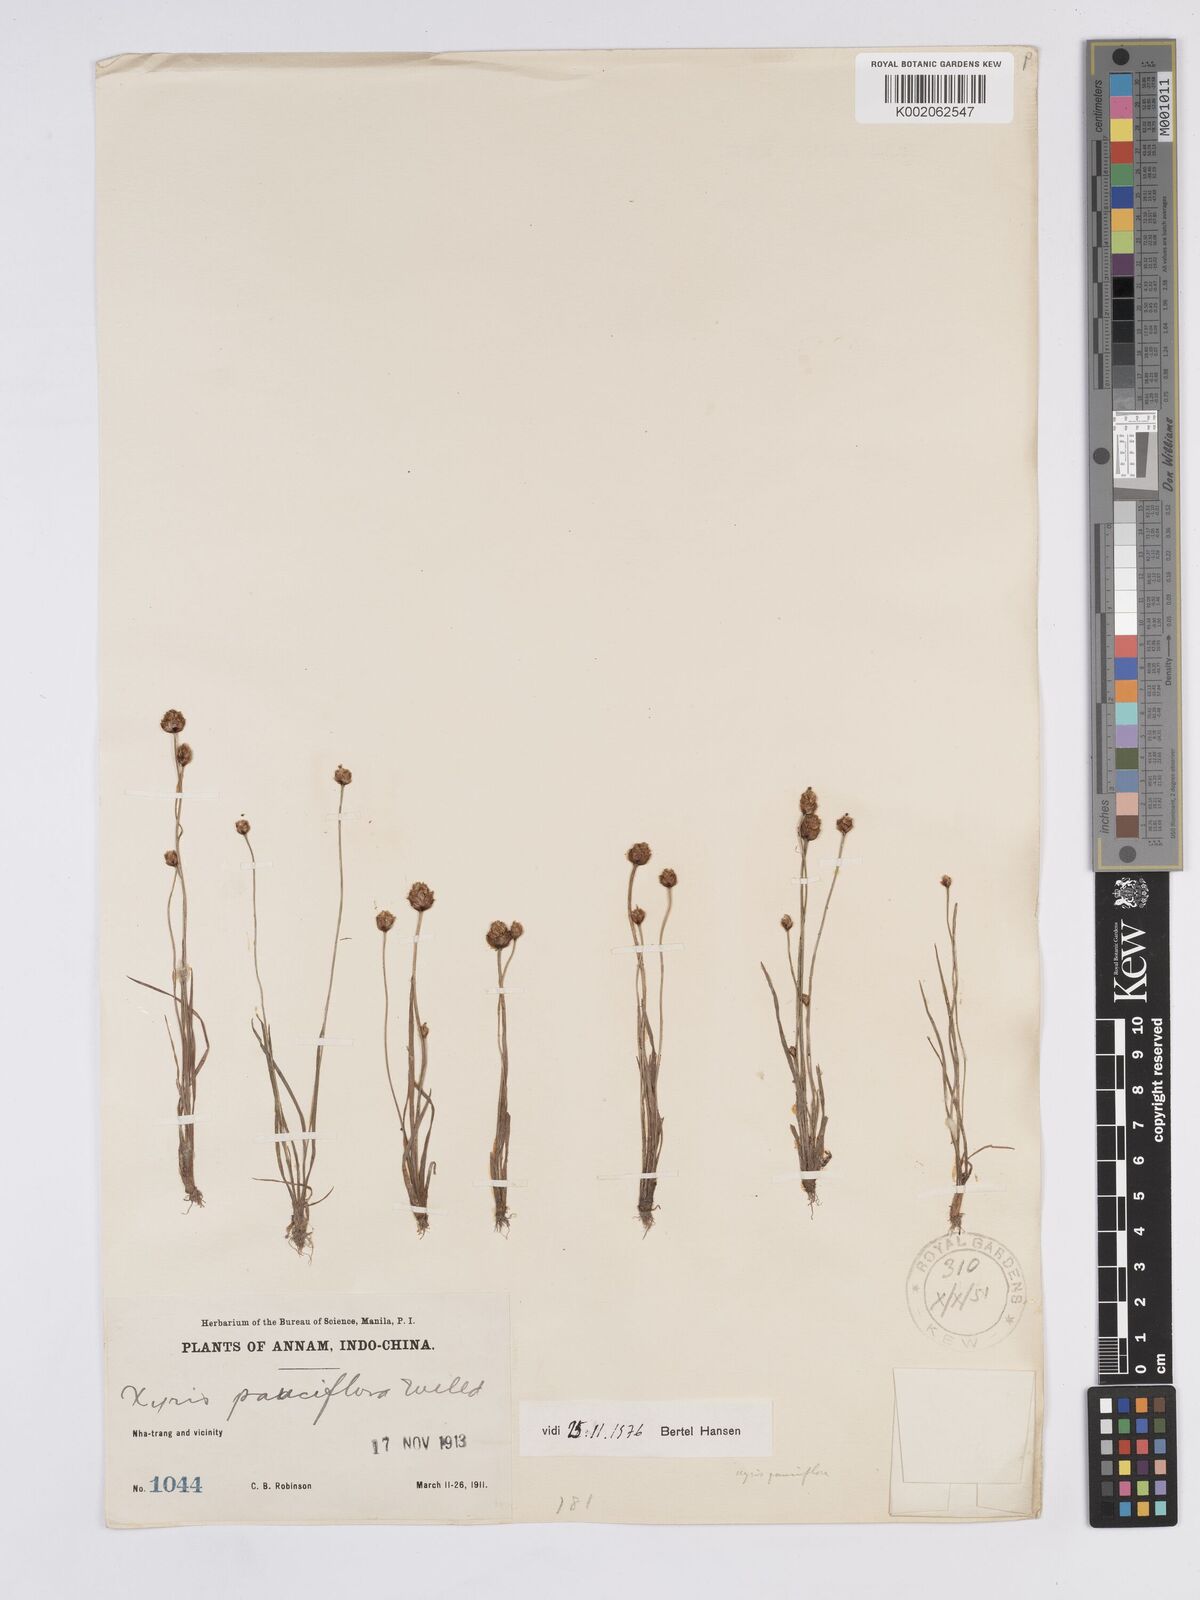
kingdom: Plantae
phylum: Tracheophyta
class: Liliopsida
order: Poales
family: Xyridaceae
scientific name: Xyridaceae
